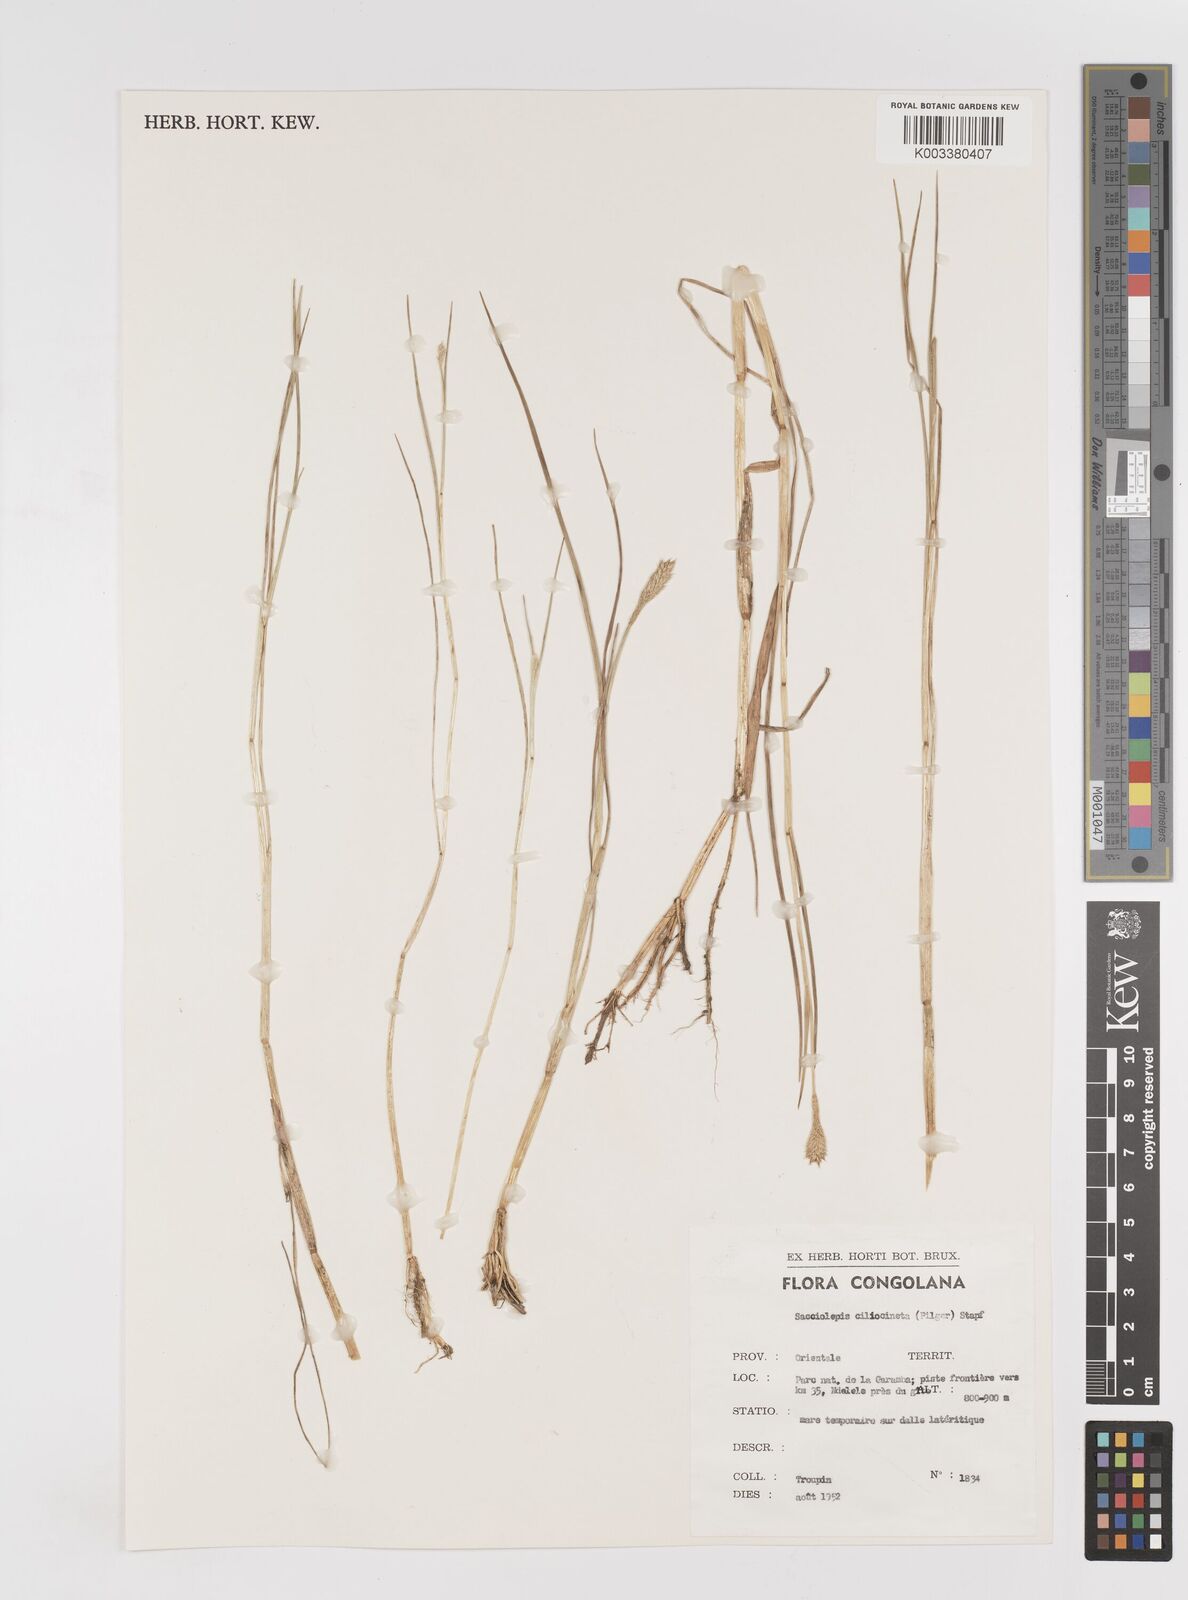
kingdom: Plantae
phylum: Tracheophyta
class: Liliopsida
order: Poales
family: Poaceae
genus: Sacciolepis
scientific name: Sacciolepis ciliocincta
